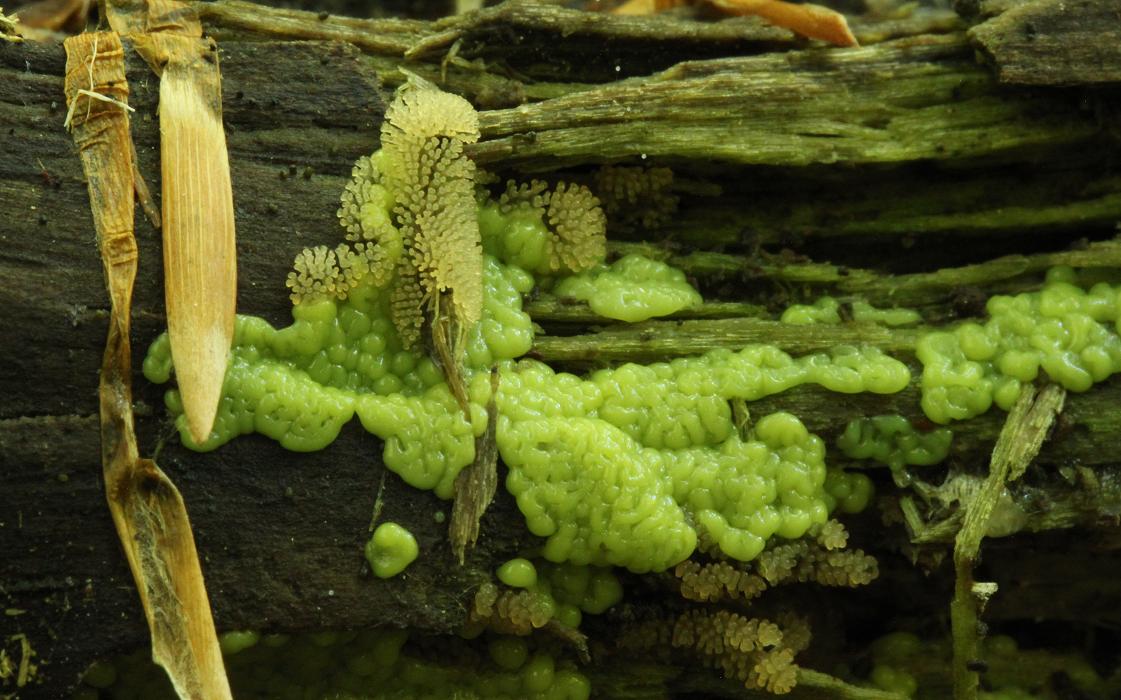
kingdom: Protozoa
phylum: Mycetozoa
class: Protosteliomycetes
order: Ceratiomyxales
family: Ceratiomyxaceae
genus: Ceratiomyxa
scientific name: Ceratiomyxa fruticulosa
